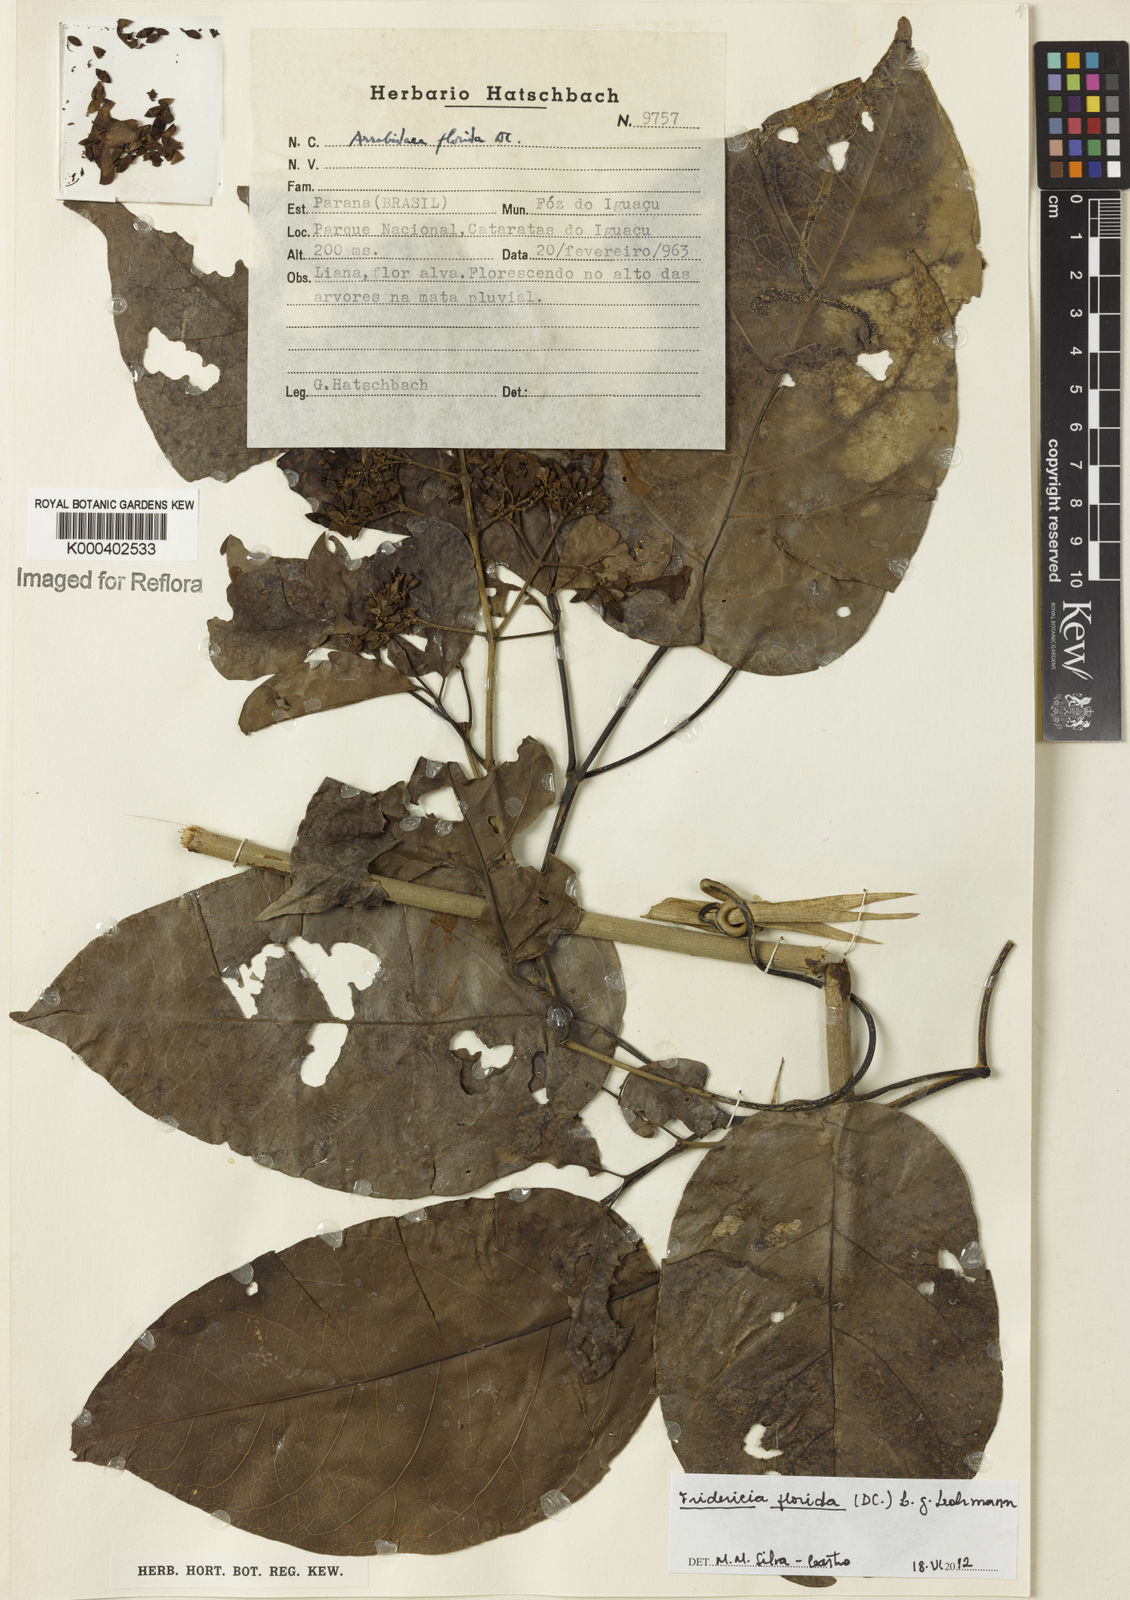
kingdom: Plantae
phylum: Tracheophyta
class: Magnoliopsida
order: Lamiales
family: Bignoniaceae
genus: Fridericia
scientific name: Fridericia florida
